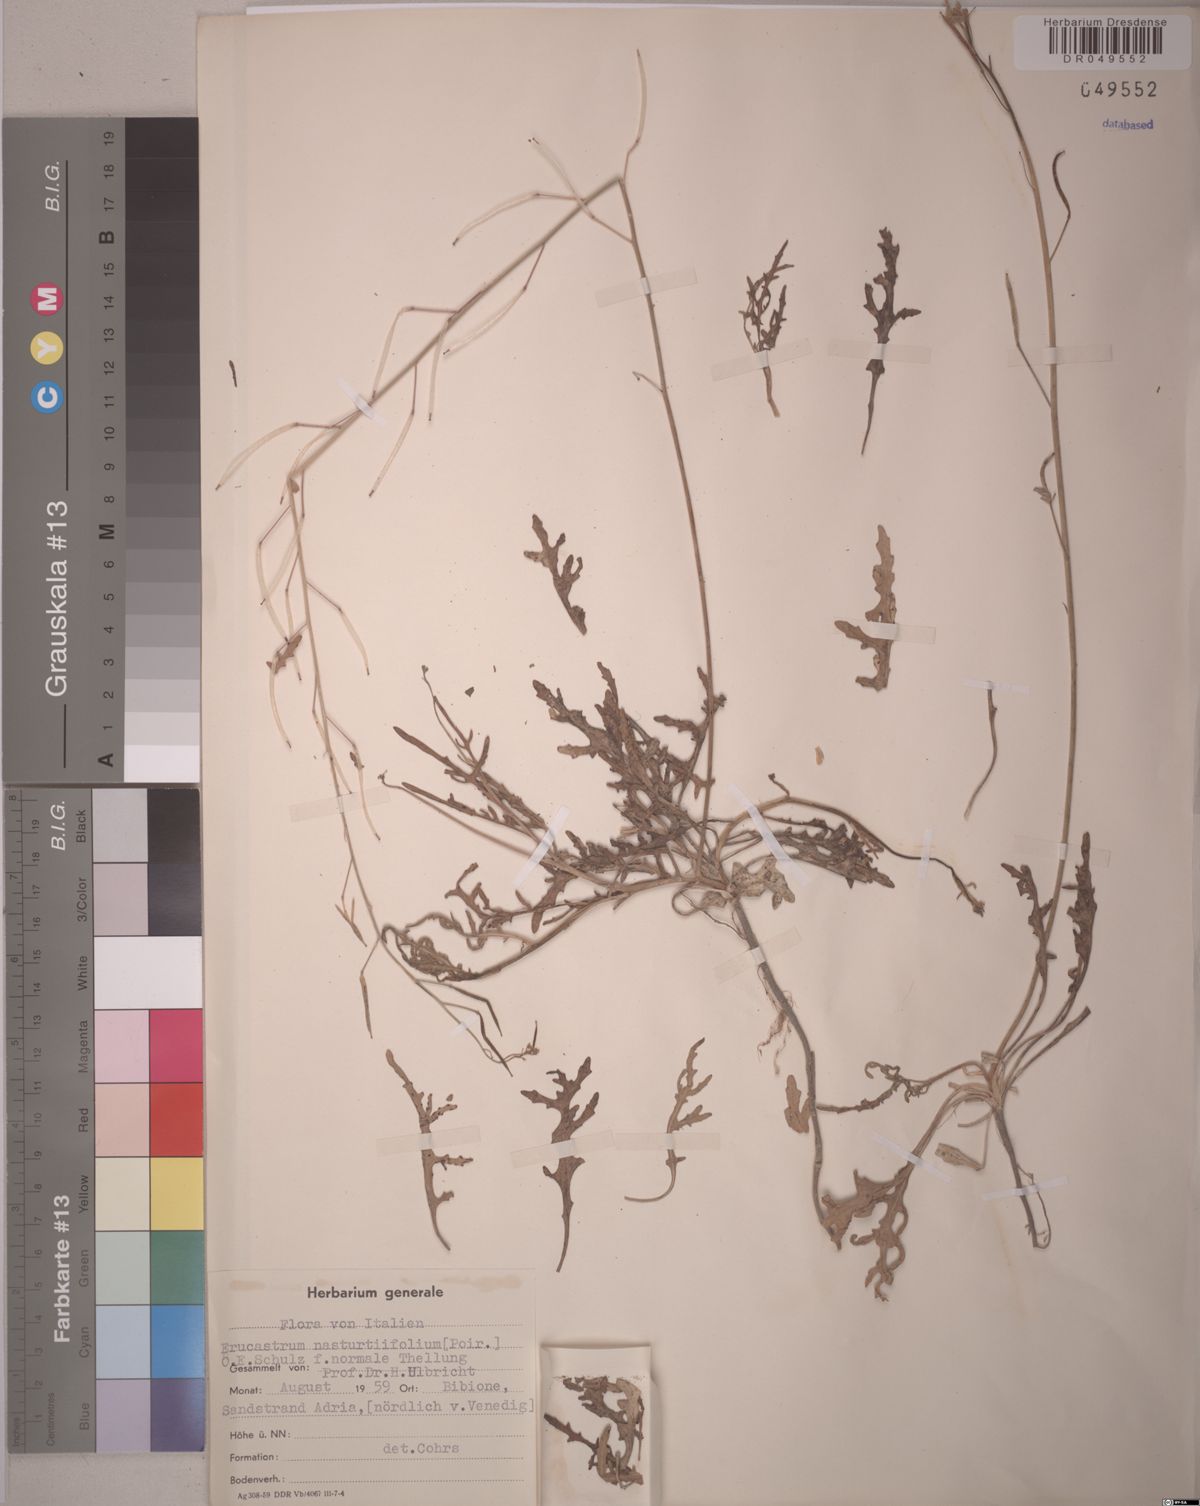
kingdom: Plantae
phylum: Tracheophyta
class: Magnoliopsida
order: Brassicales
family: Brassicaceae
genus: Erucastrum
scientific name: Erucastrum nasturtiifolium
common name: Watercress-leaf rocket
